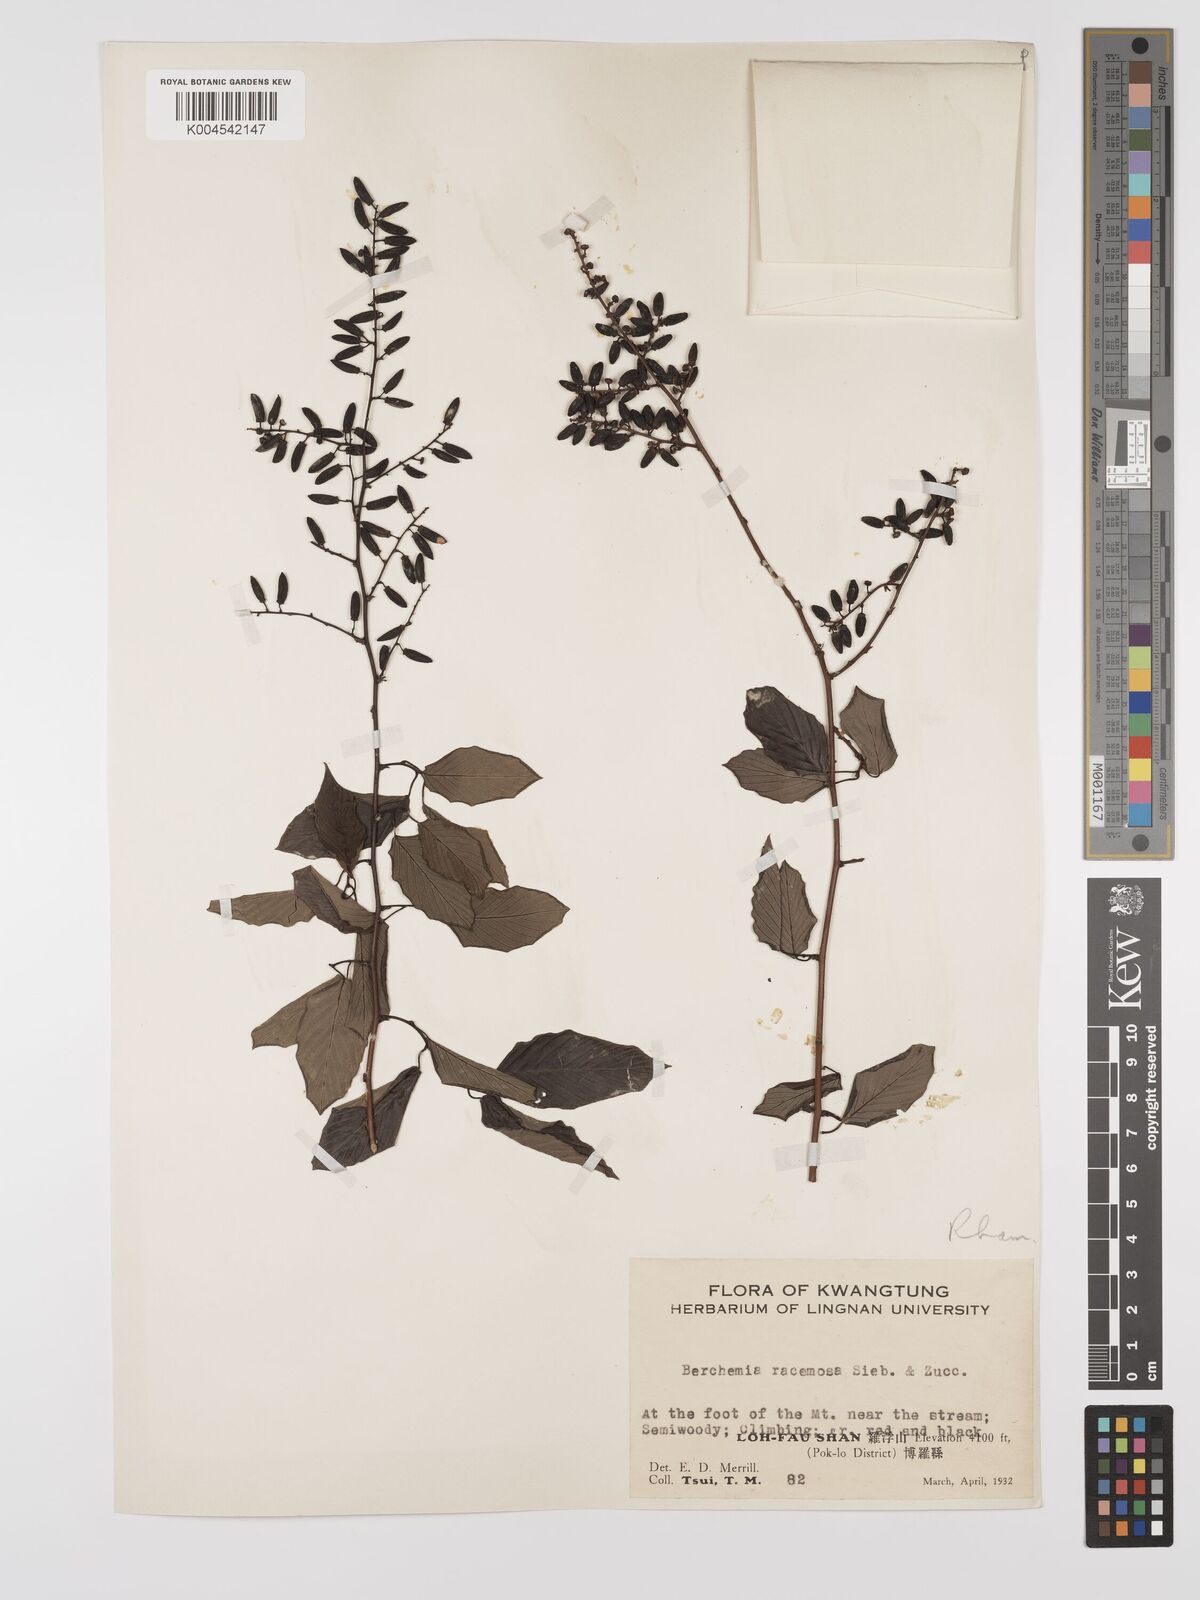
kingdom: Plantae
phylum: Tracheophyta
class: Magnoliopsida
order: Rosales
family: Rhamnaceae
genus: Berchemia
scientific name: Berchemia floribunda
